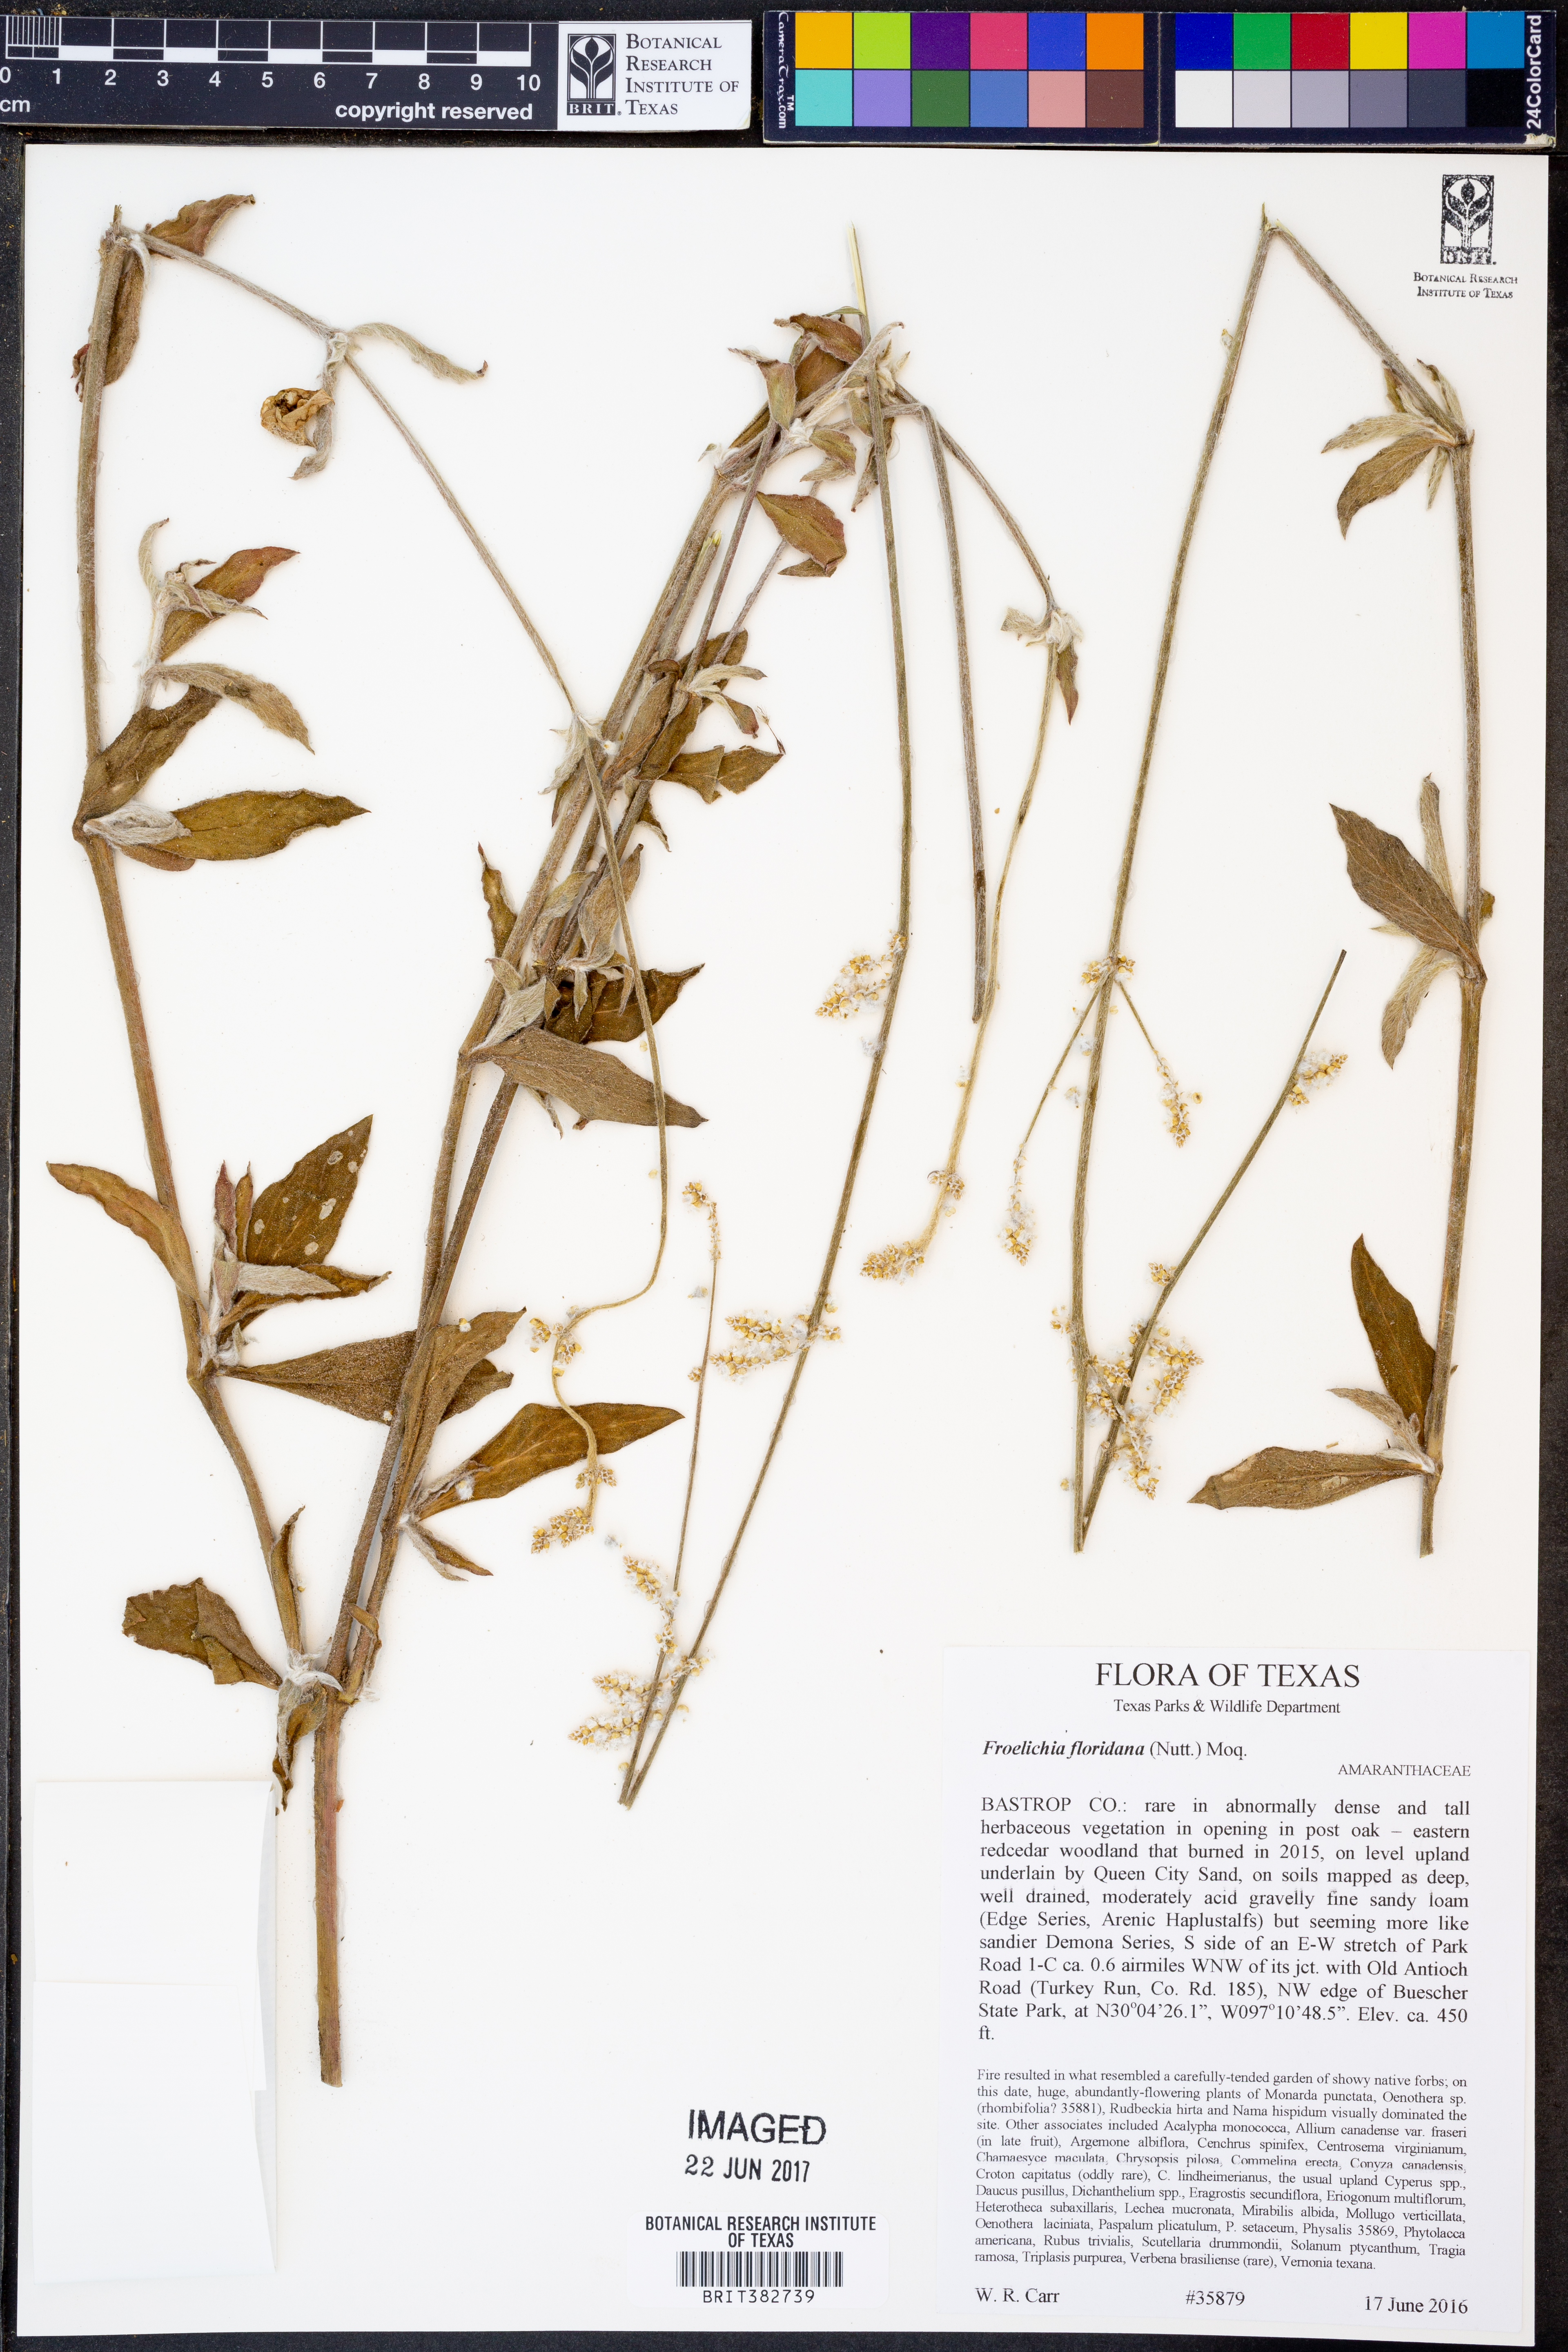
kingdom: Plantae
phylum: Tracheophyta
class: Magnoliopsida
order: Caryophyllales
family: Amaranthaceae
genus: Froelichia
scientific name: Froelichia floridana
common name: Florida snake-cotton
